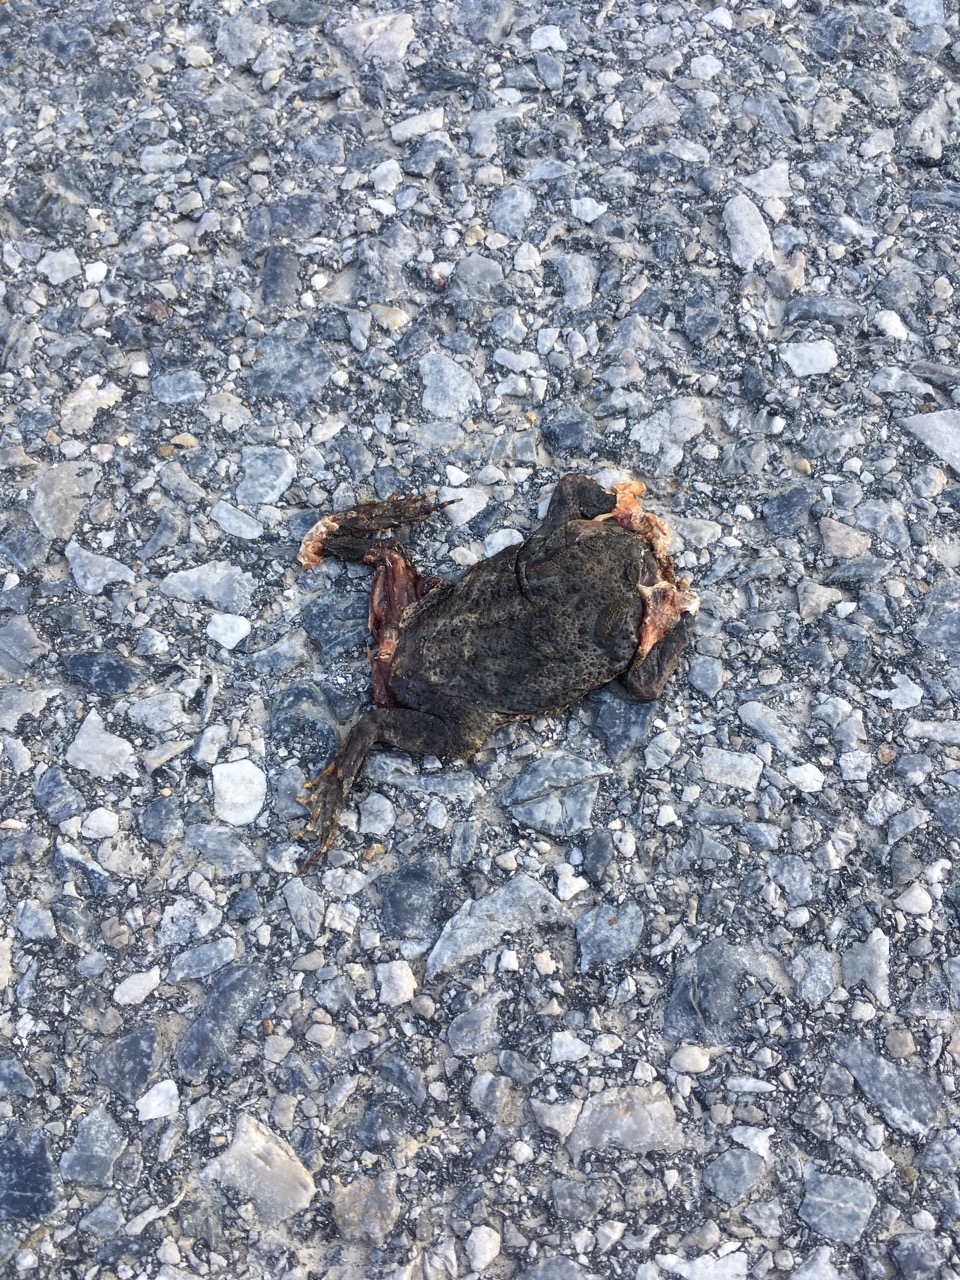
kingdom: Animalia
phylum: Chordata
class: Amphibia
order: Anura
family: Bufonidae
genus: Bufo
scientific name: Bufo bufo
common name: Common toad
